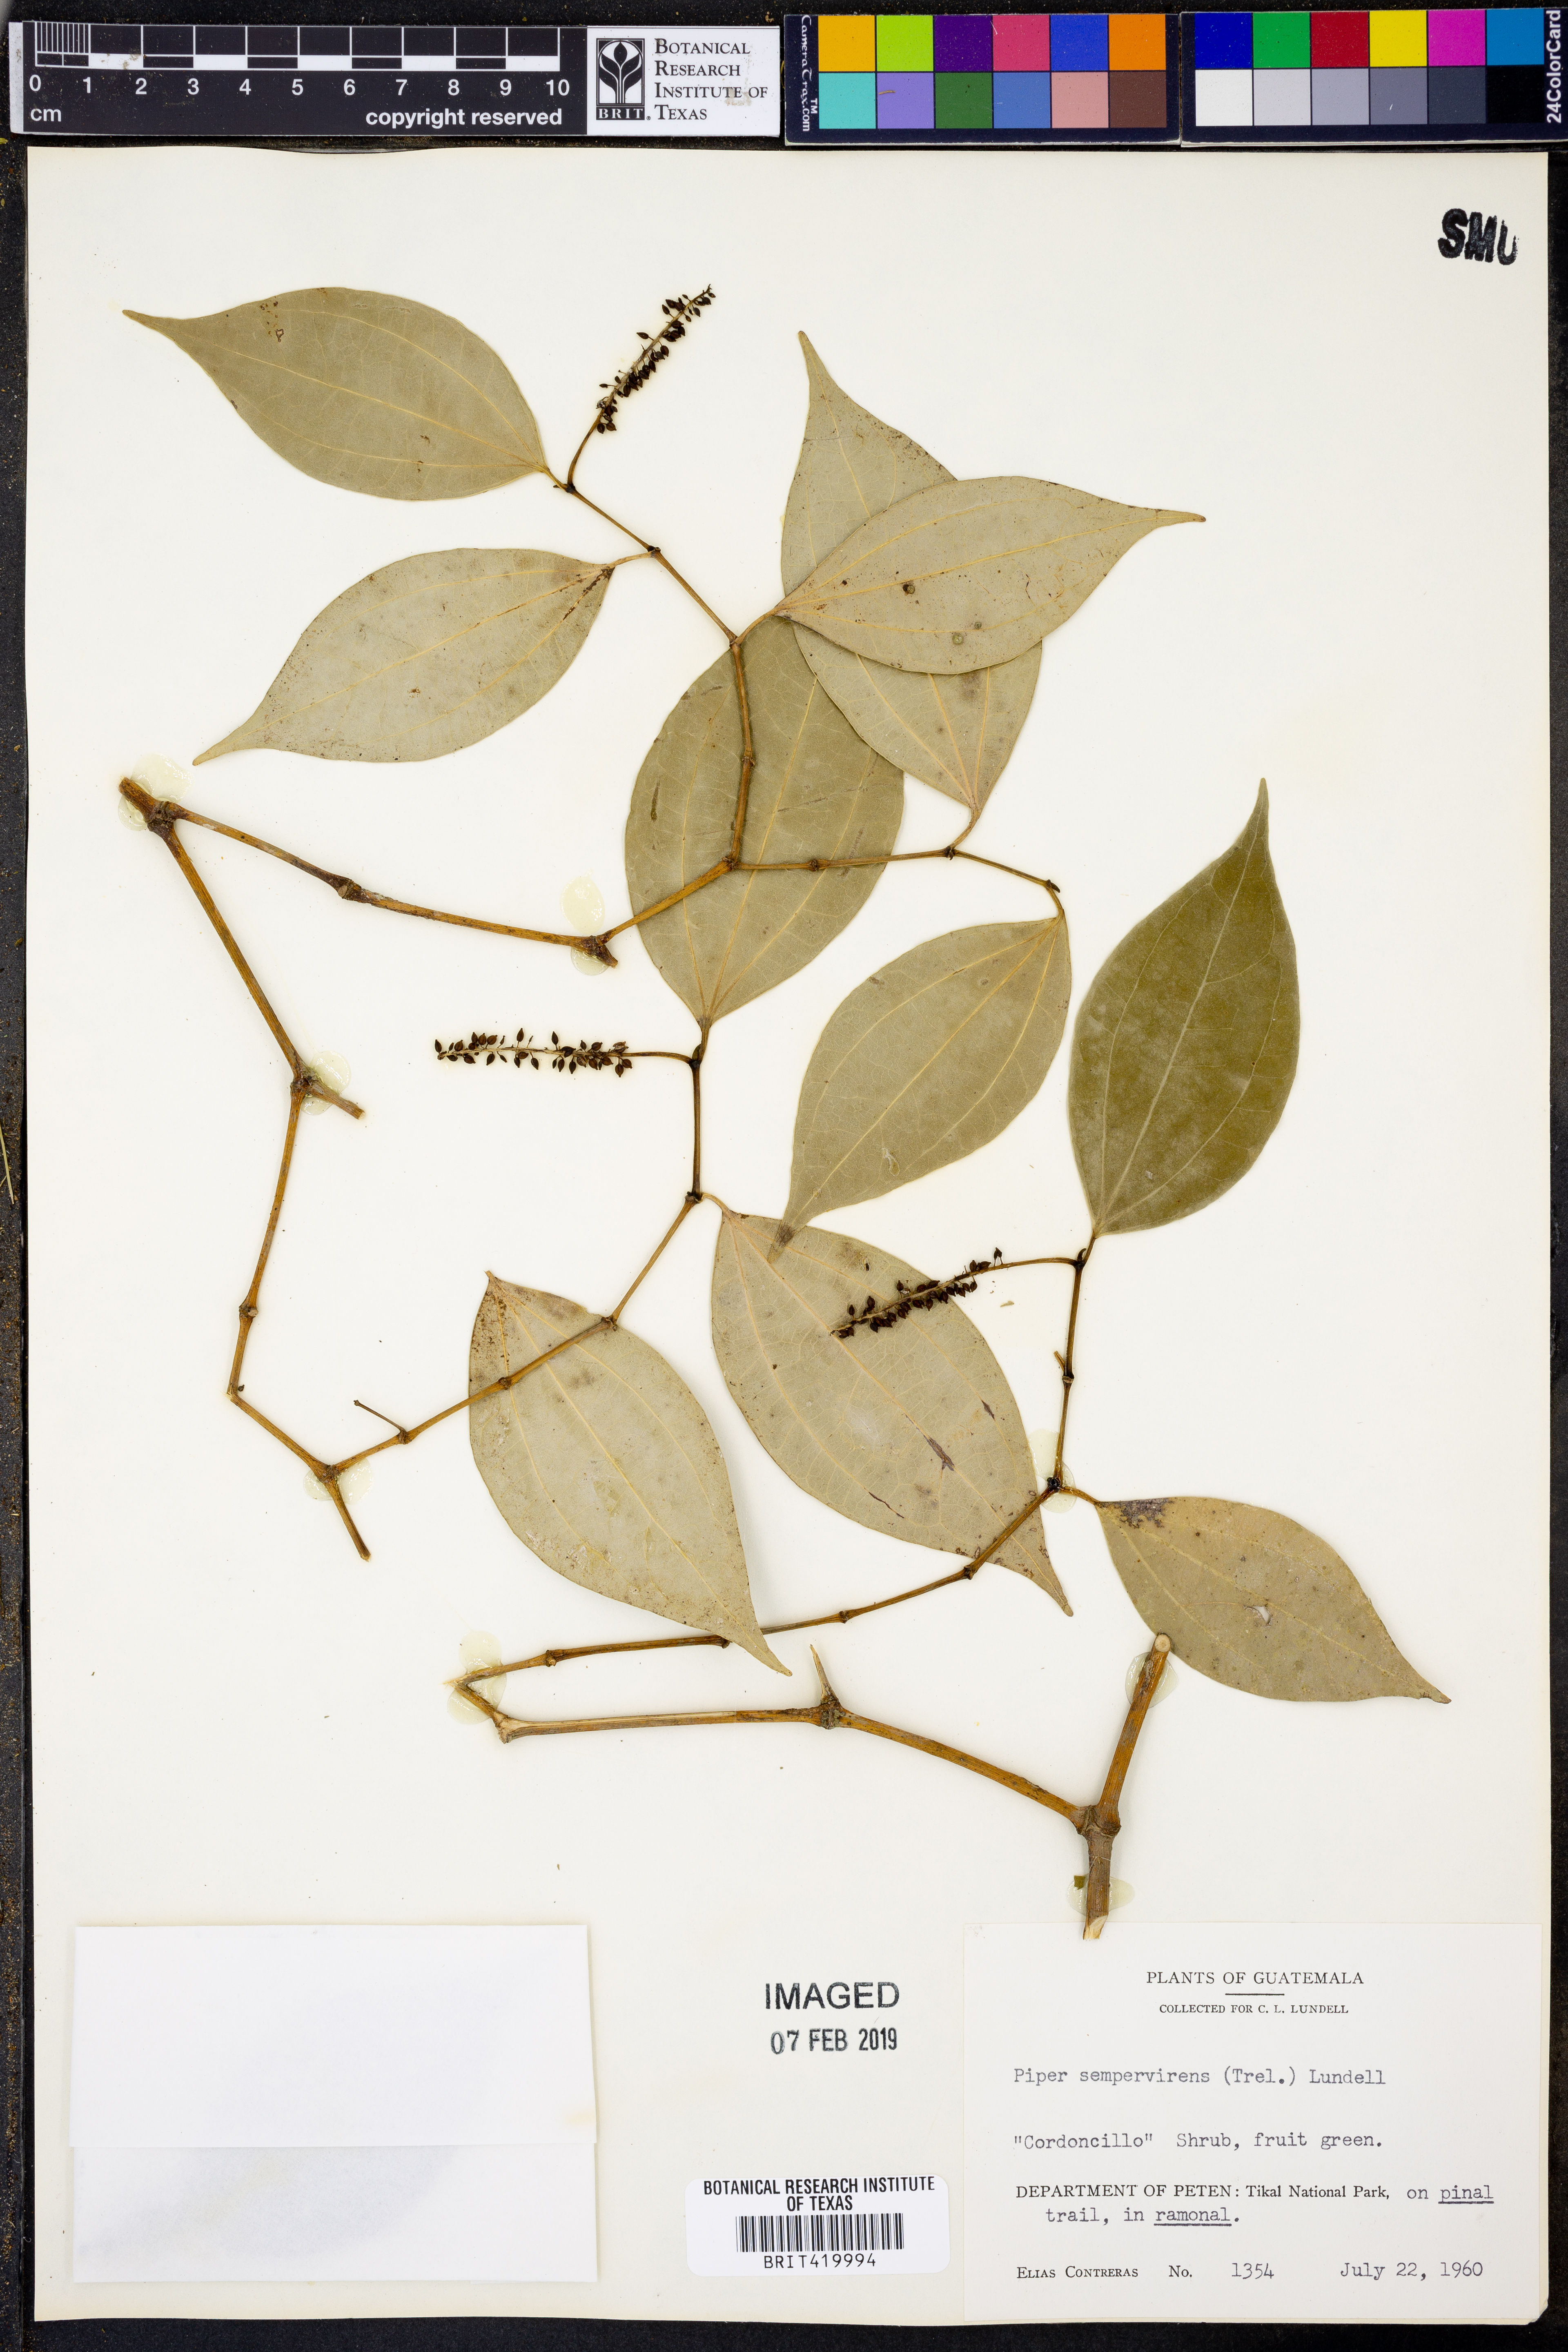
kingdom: Plantae
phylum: Tracheophyta
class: Magnoliopsida
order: Piperales
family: Piperaceae
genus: Piper
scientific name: Piper neesianum
